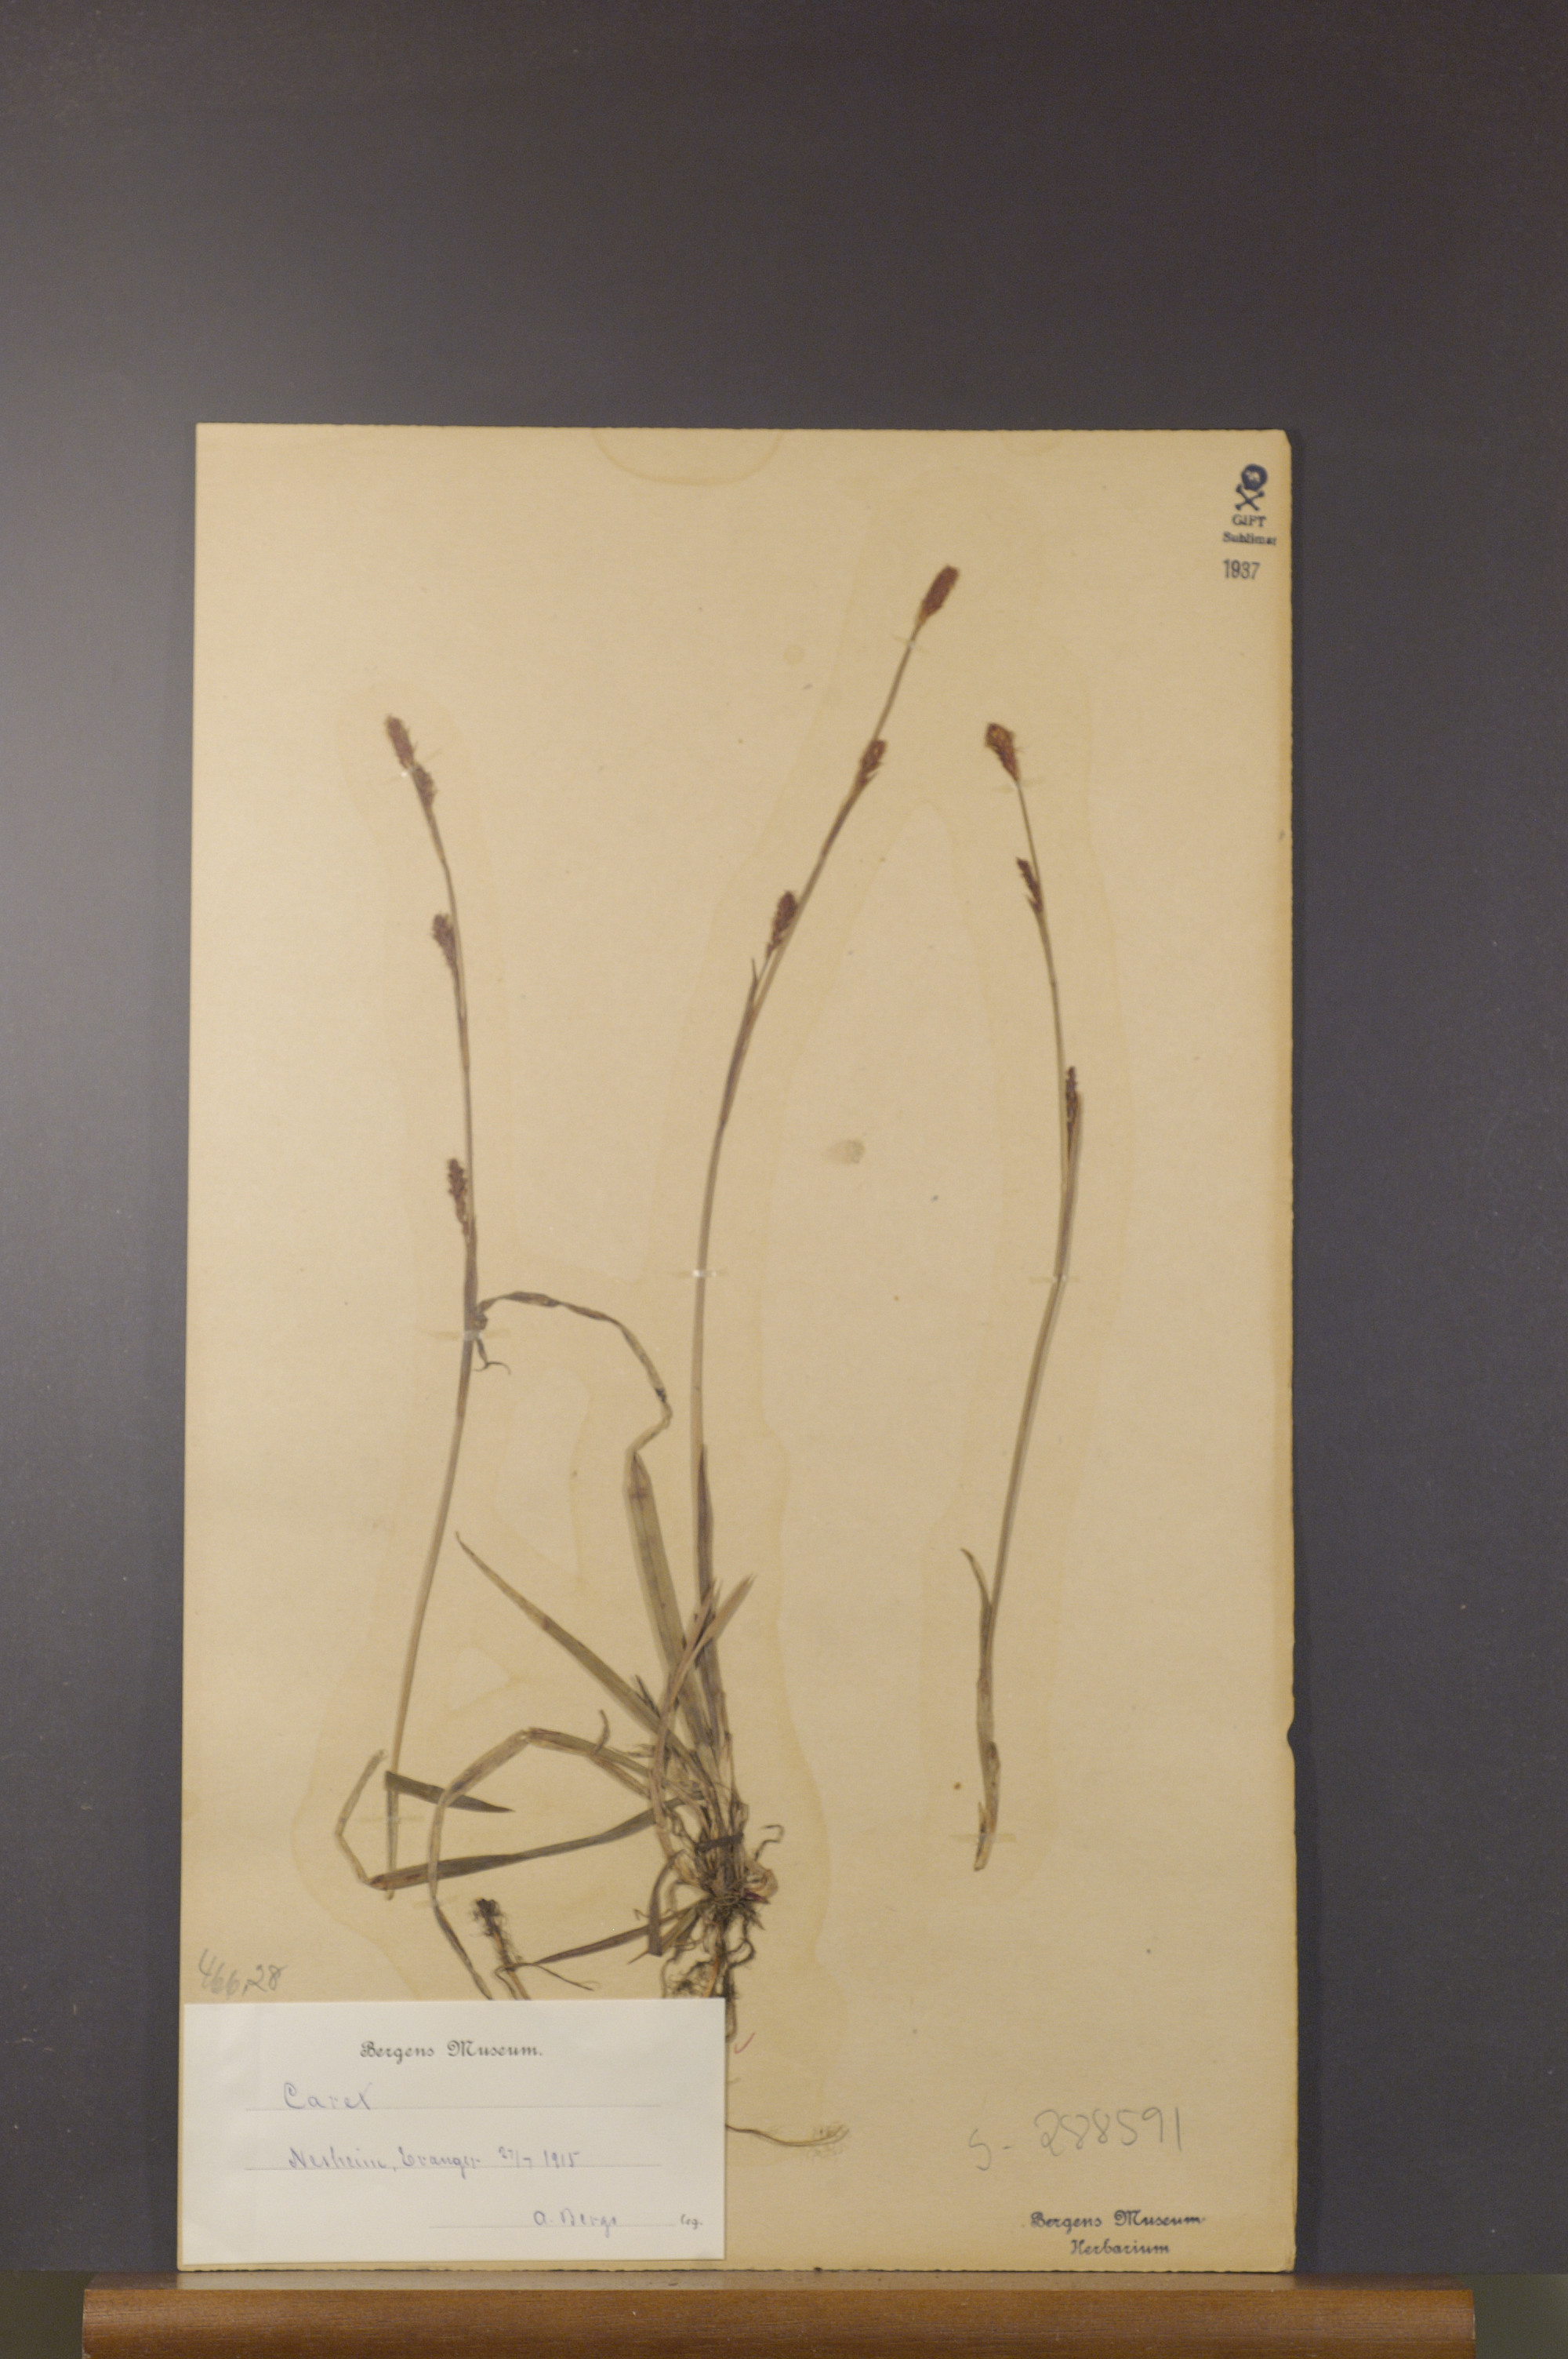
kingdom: Plantae
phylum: Tracheophyta
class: Liliopsida
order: Poales
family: Cyperaceae
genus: Carex
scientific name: Carex
